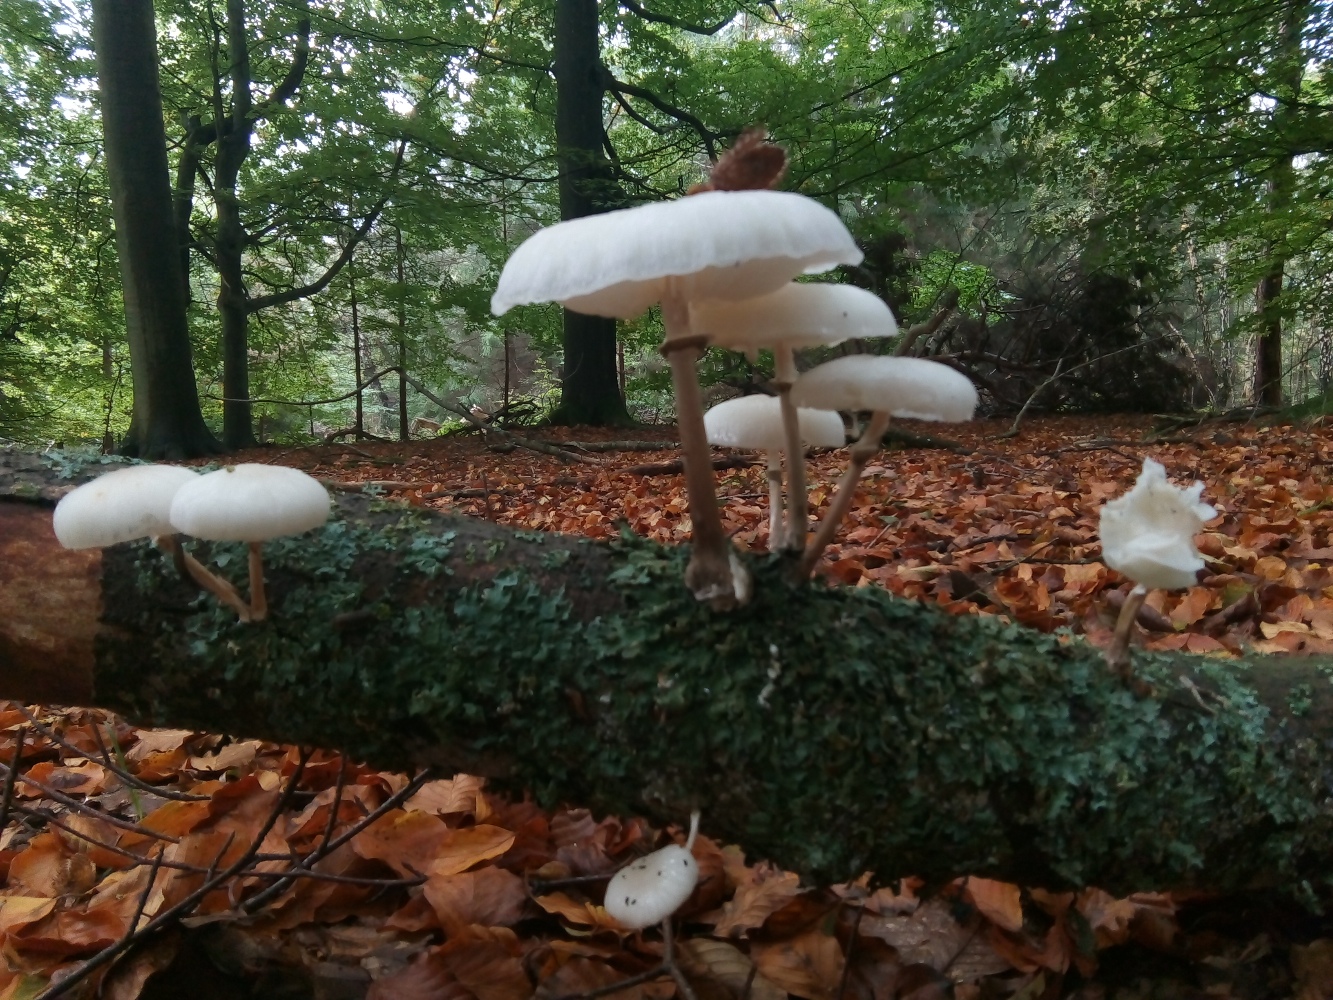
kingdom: Fungi
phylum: Basidiomycota
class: Agaricomycetes
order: Agaricales
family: Physalacriaceae
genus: Mucidula
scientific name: Mucidula mucida
